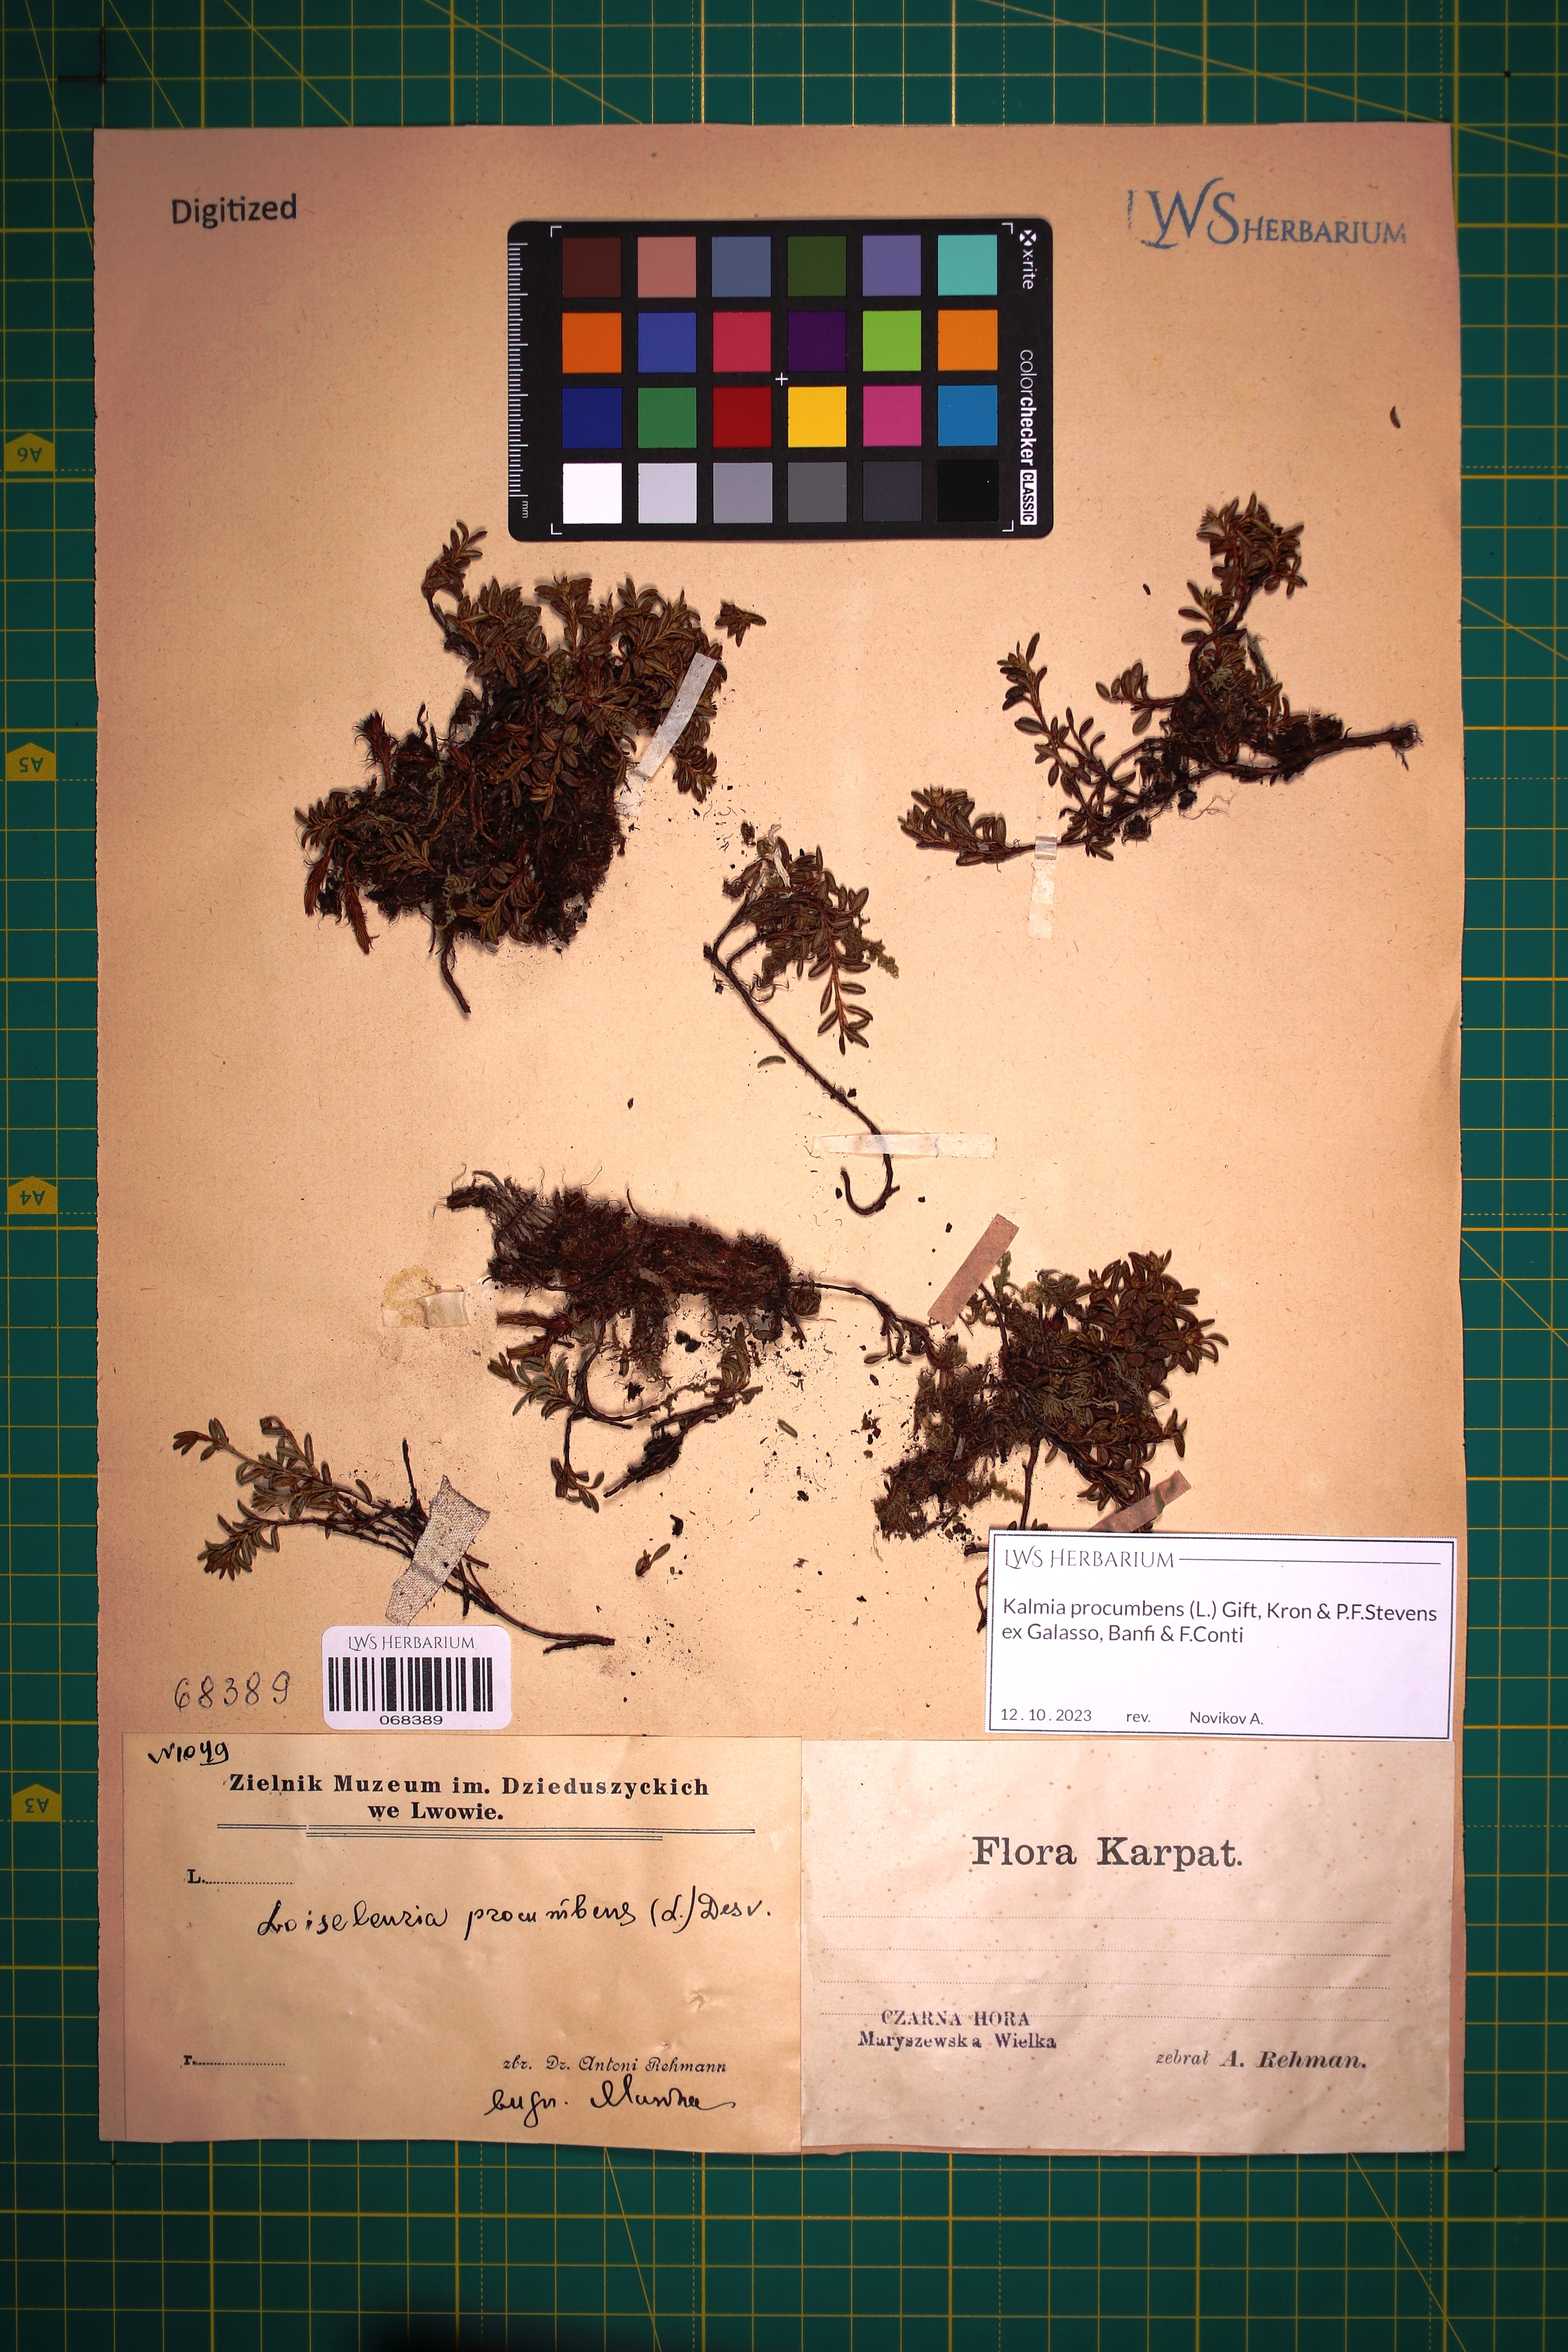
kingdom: Plantae
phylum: Tracheophyta
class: Magnoliopsida
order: Ericales
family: Ericaceae
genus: Kalmia
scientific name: Kalmia procumbens
